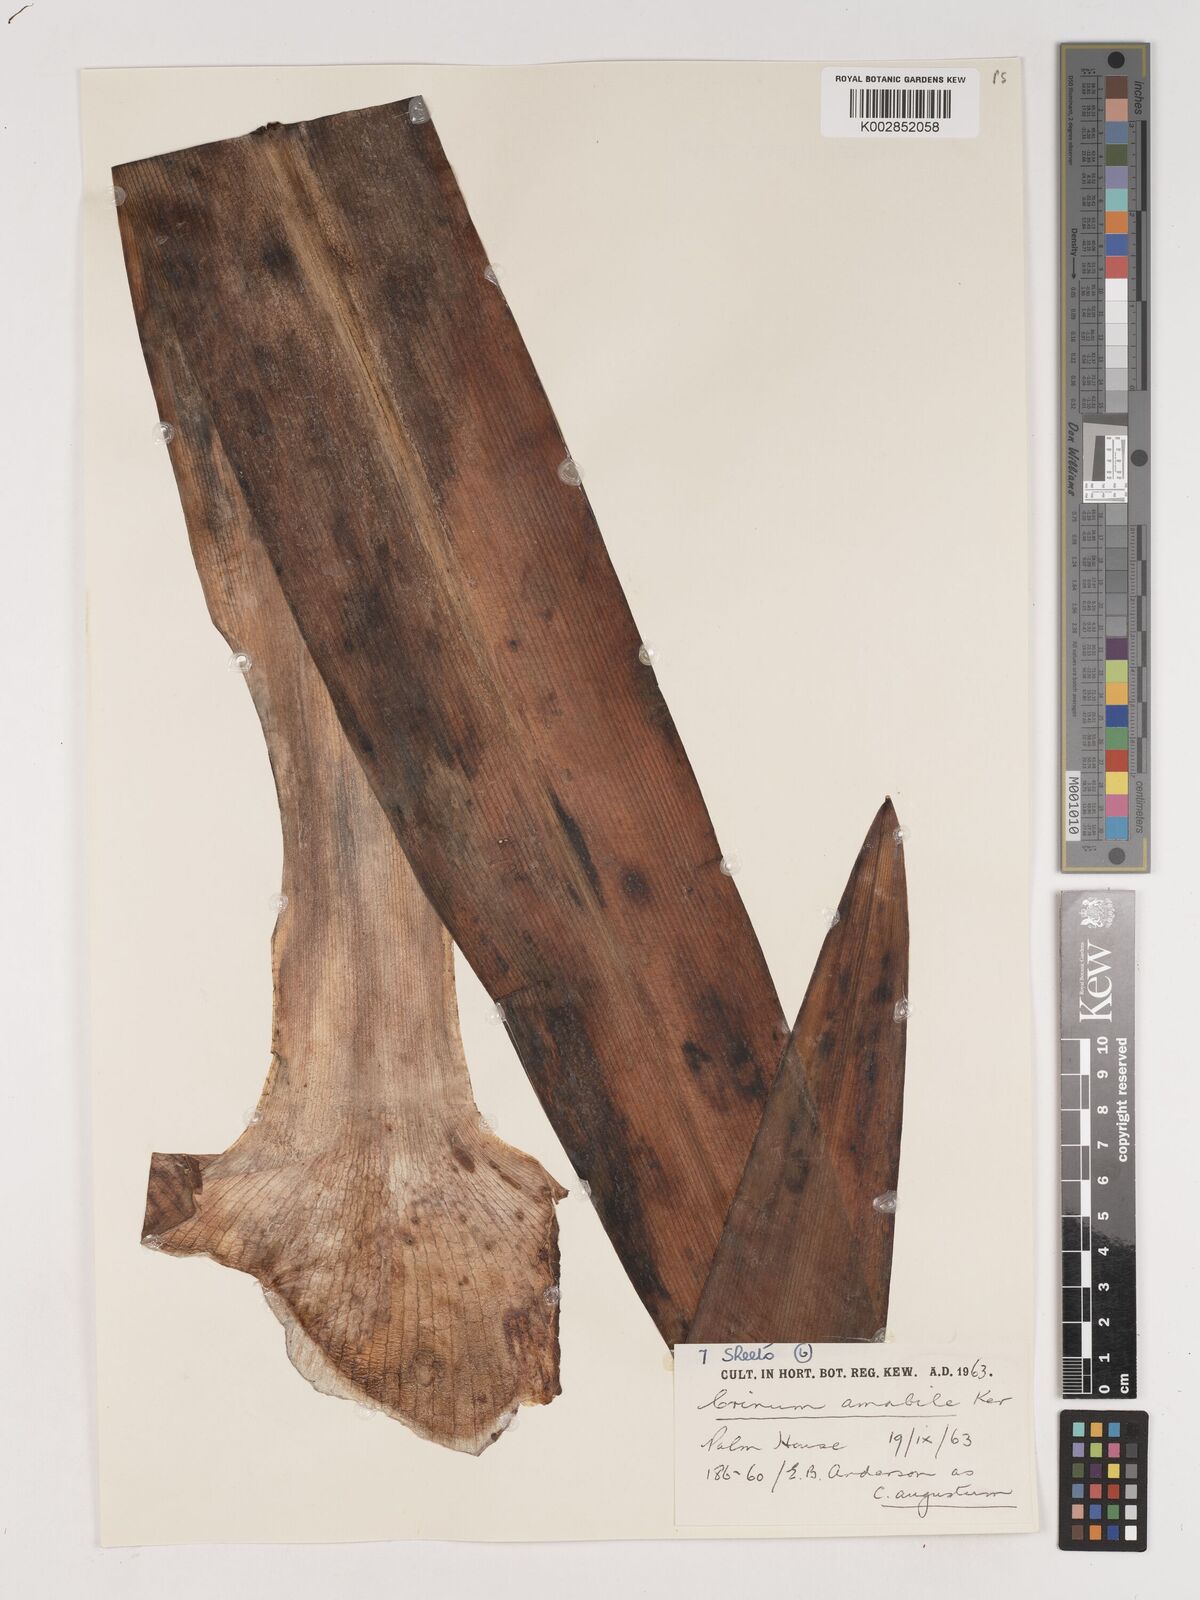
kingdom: Plantae
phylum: Tracheophyta
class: Liliopsida
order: Asparagales
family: Amaryllidaceae
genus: Crinum
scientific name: Crinum amabile
